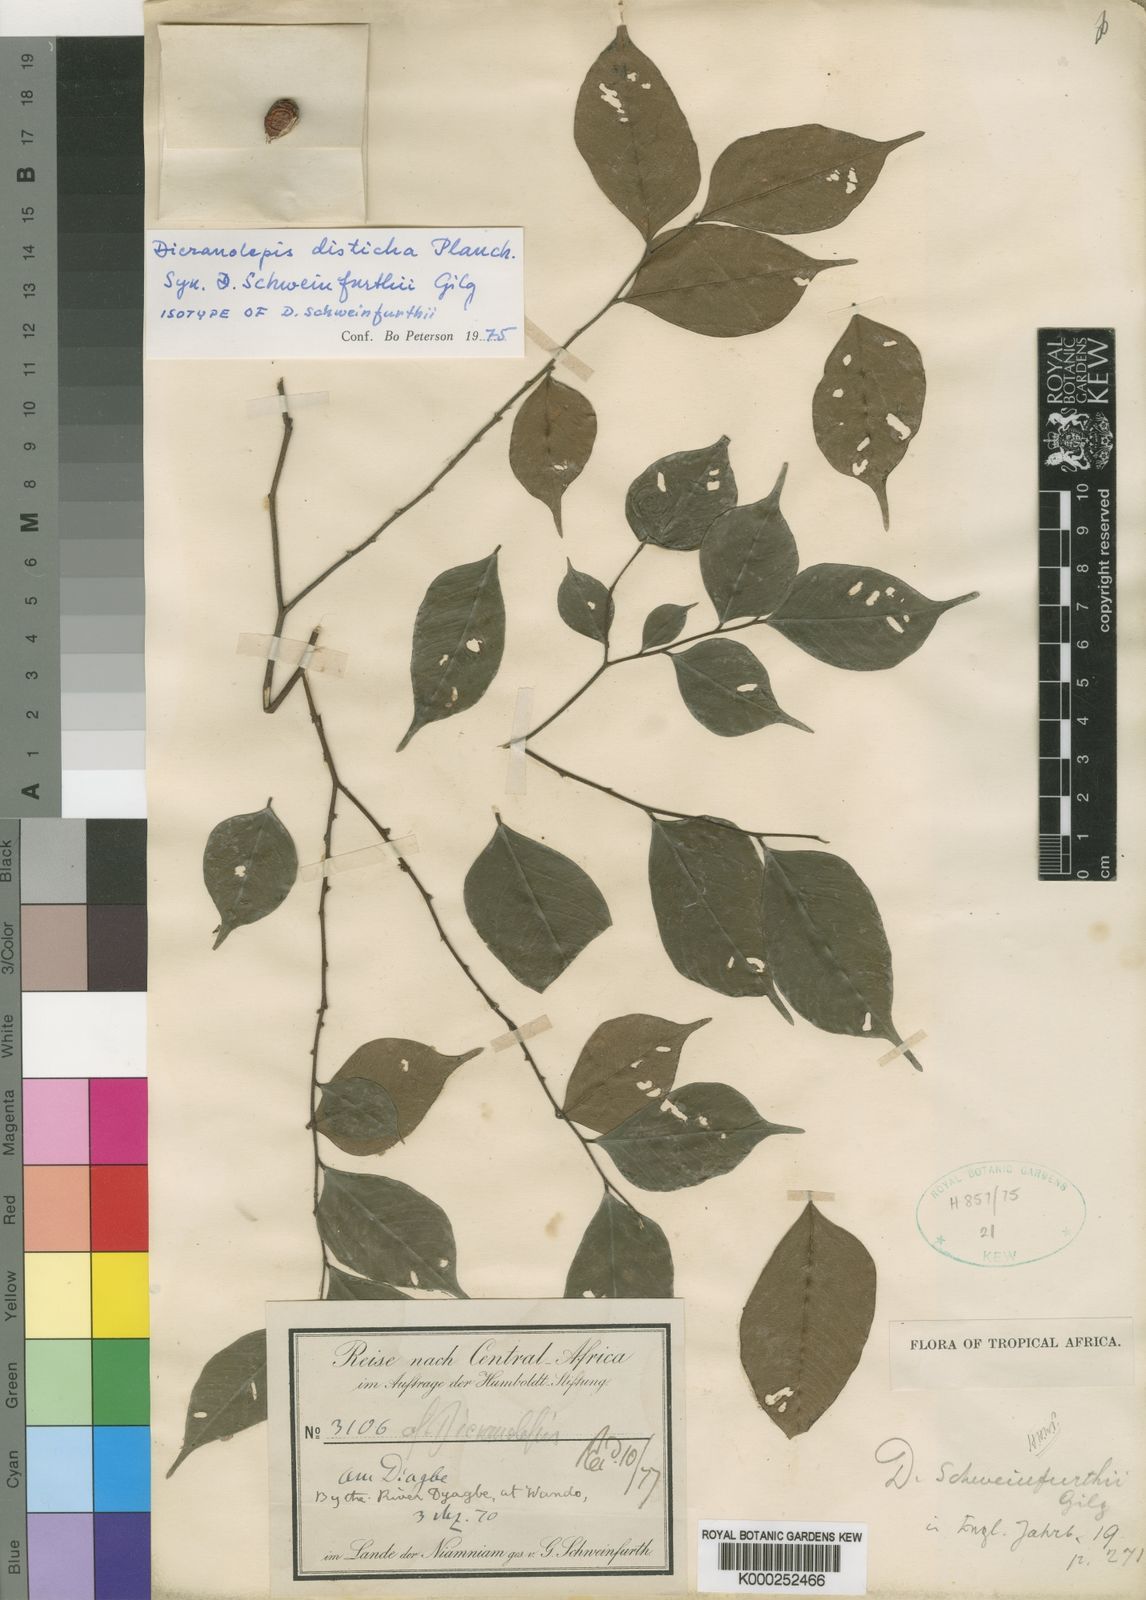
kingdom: Plantae
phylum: Tracheophyta
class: Magnoliopsida
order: Malvales
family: Thymelaeaceae
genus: Dicranolepis
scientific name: Dicranolepis disticha
